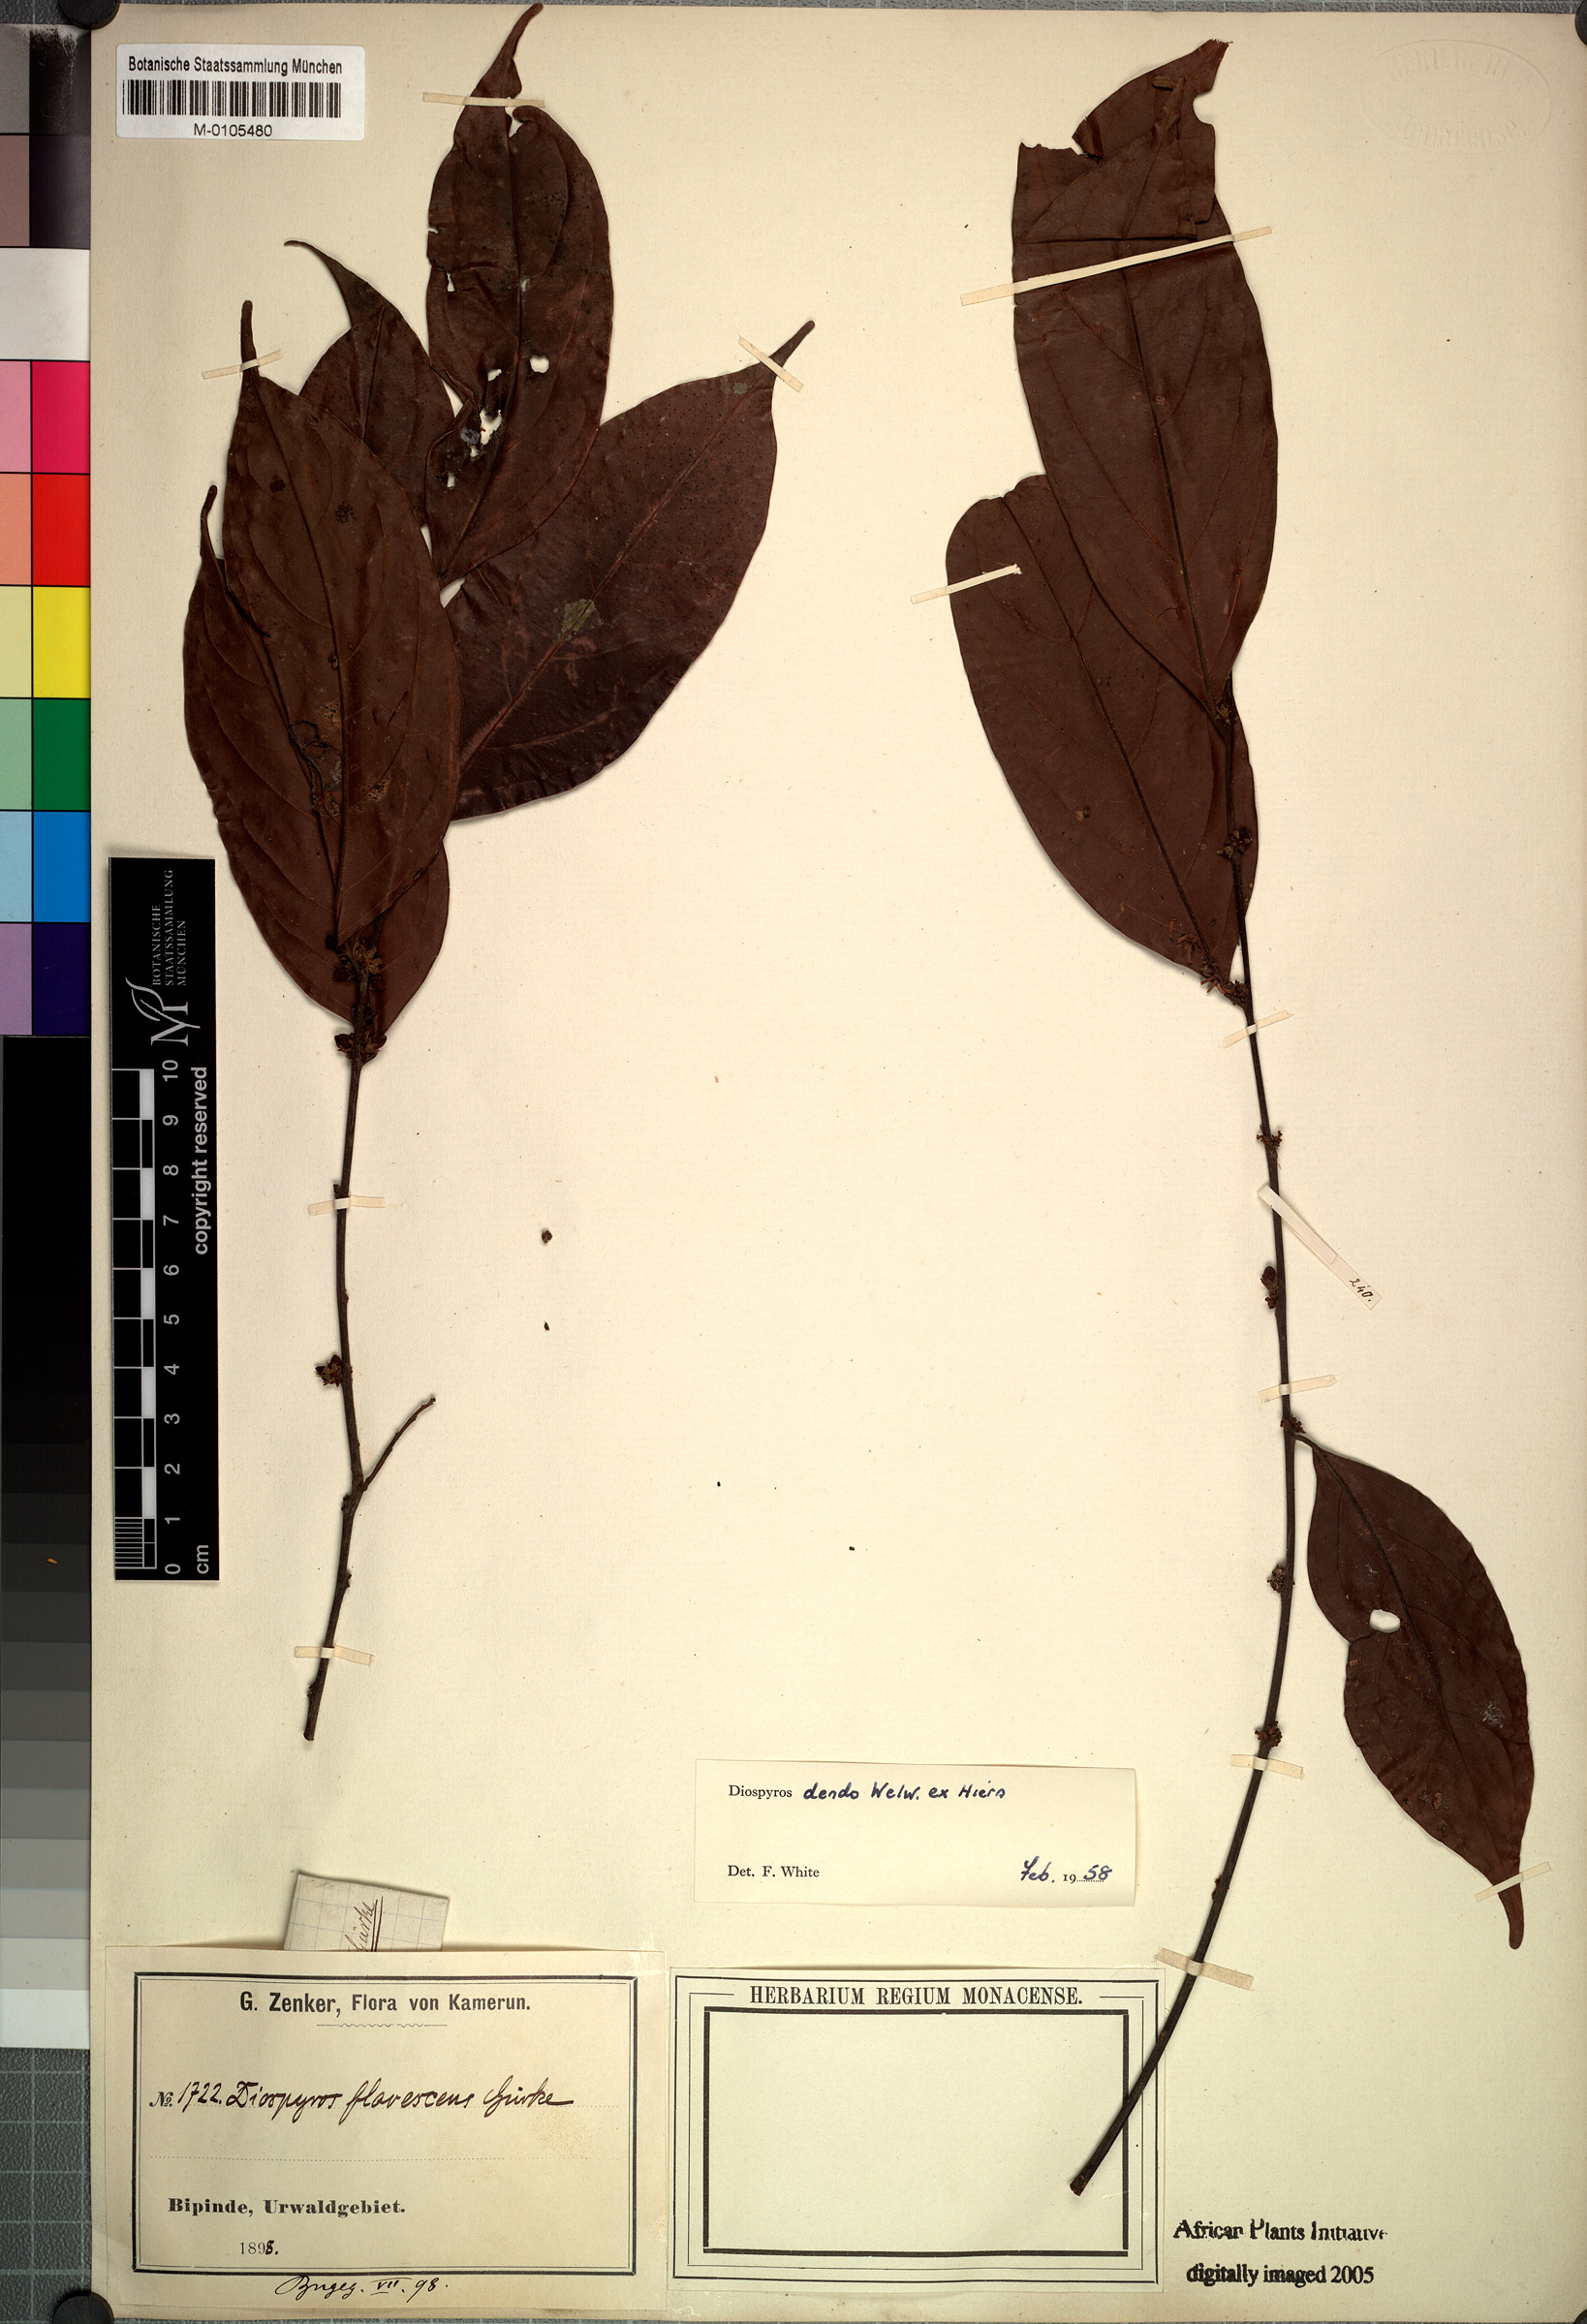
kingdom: Plantae
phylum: Tracheophyta
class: Magnoliopsida
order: Ericales
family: Ebenaceae
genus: Diospyros
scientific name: Diospyros dendo
